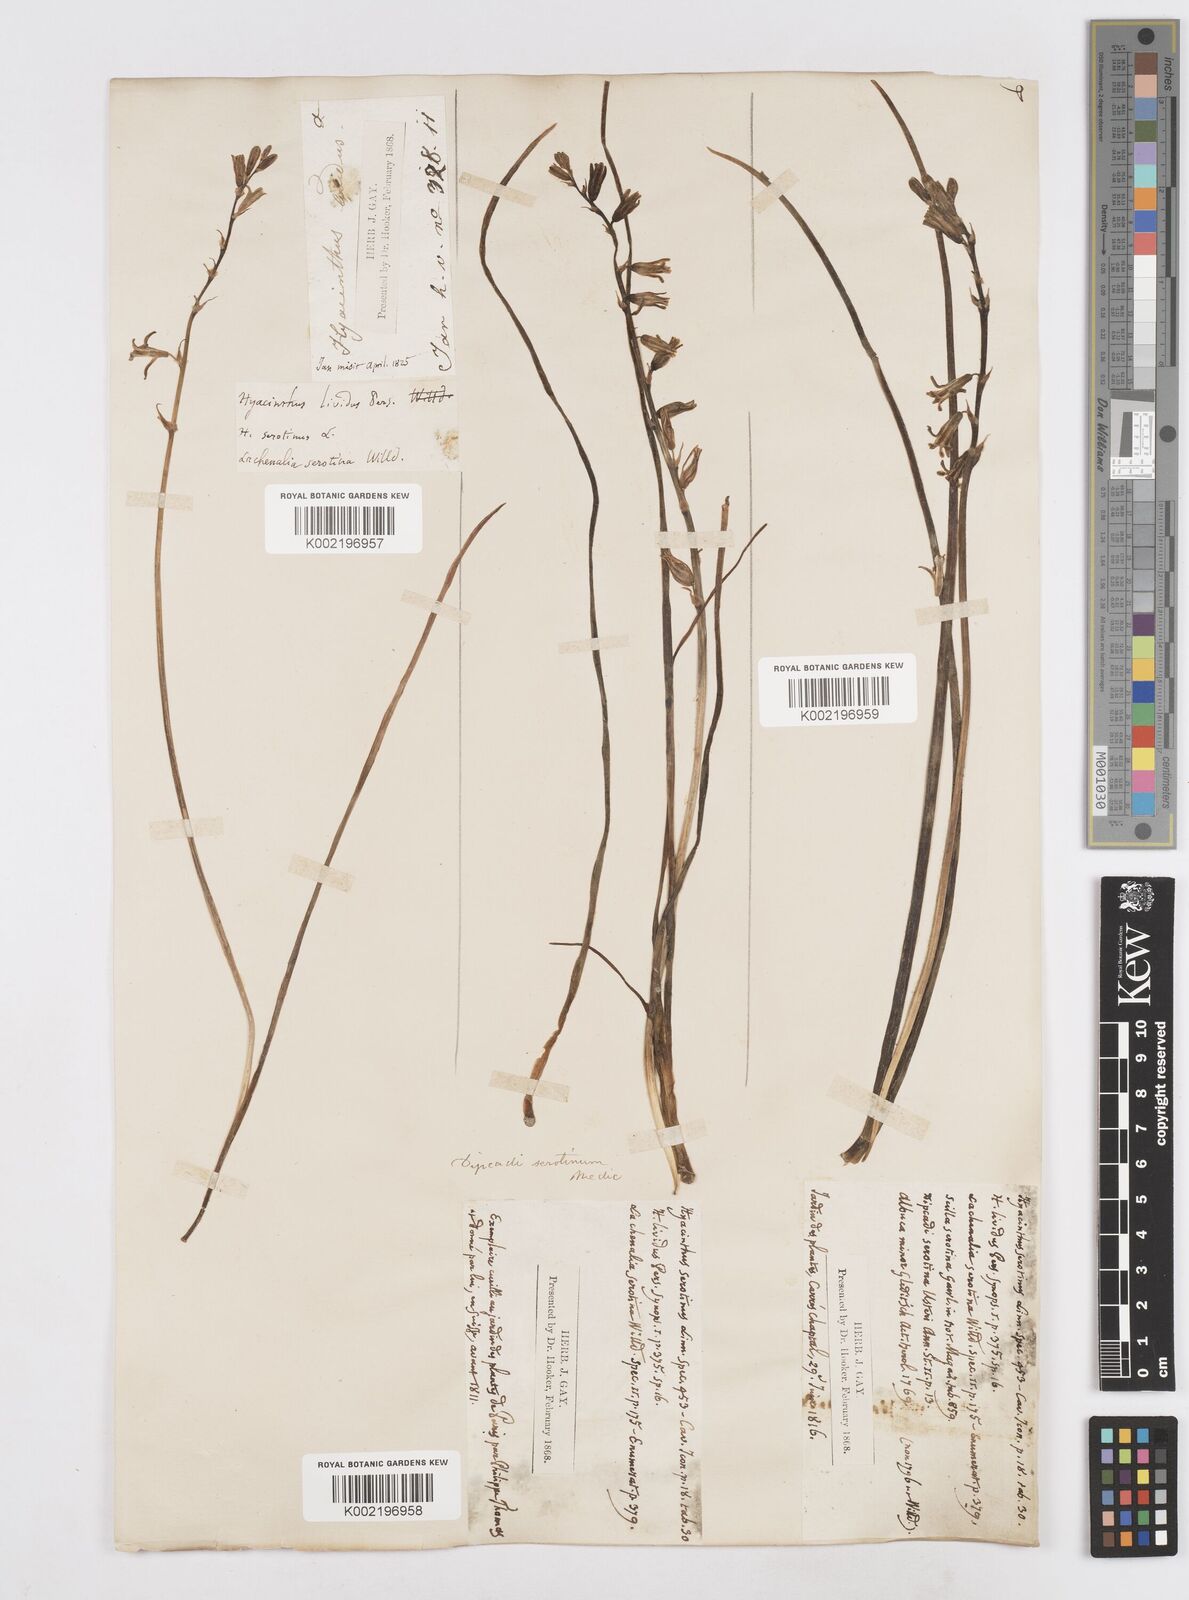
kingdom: Plantae
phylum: Tracheophyta
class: Liliopsida
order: Asparagales
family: Asparagaceae
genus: Dipcadi
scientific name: Dipcadi serotinum
